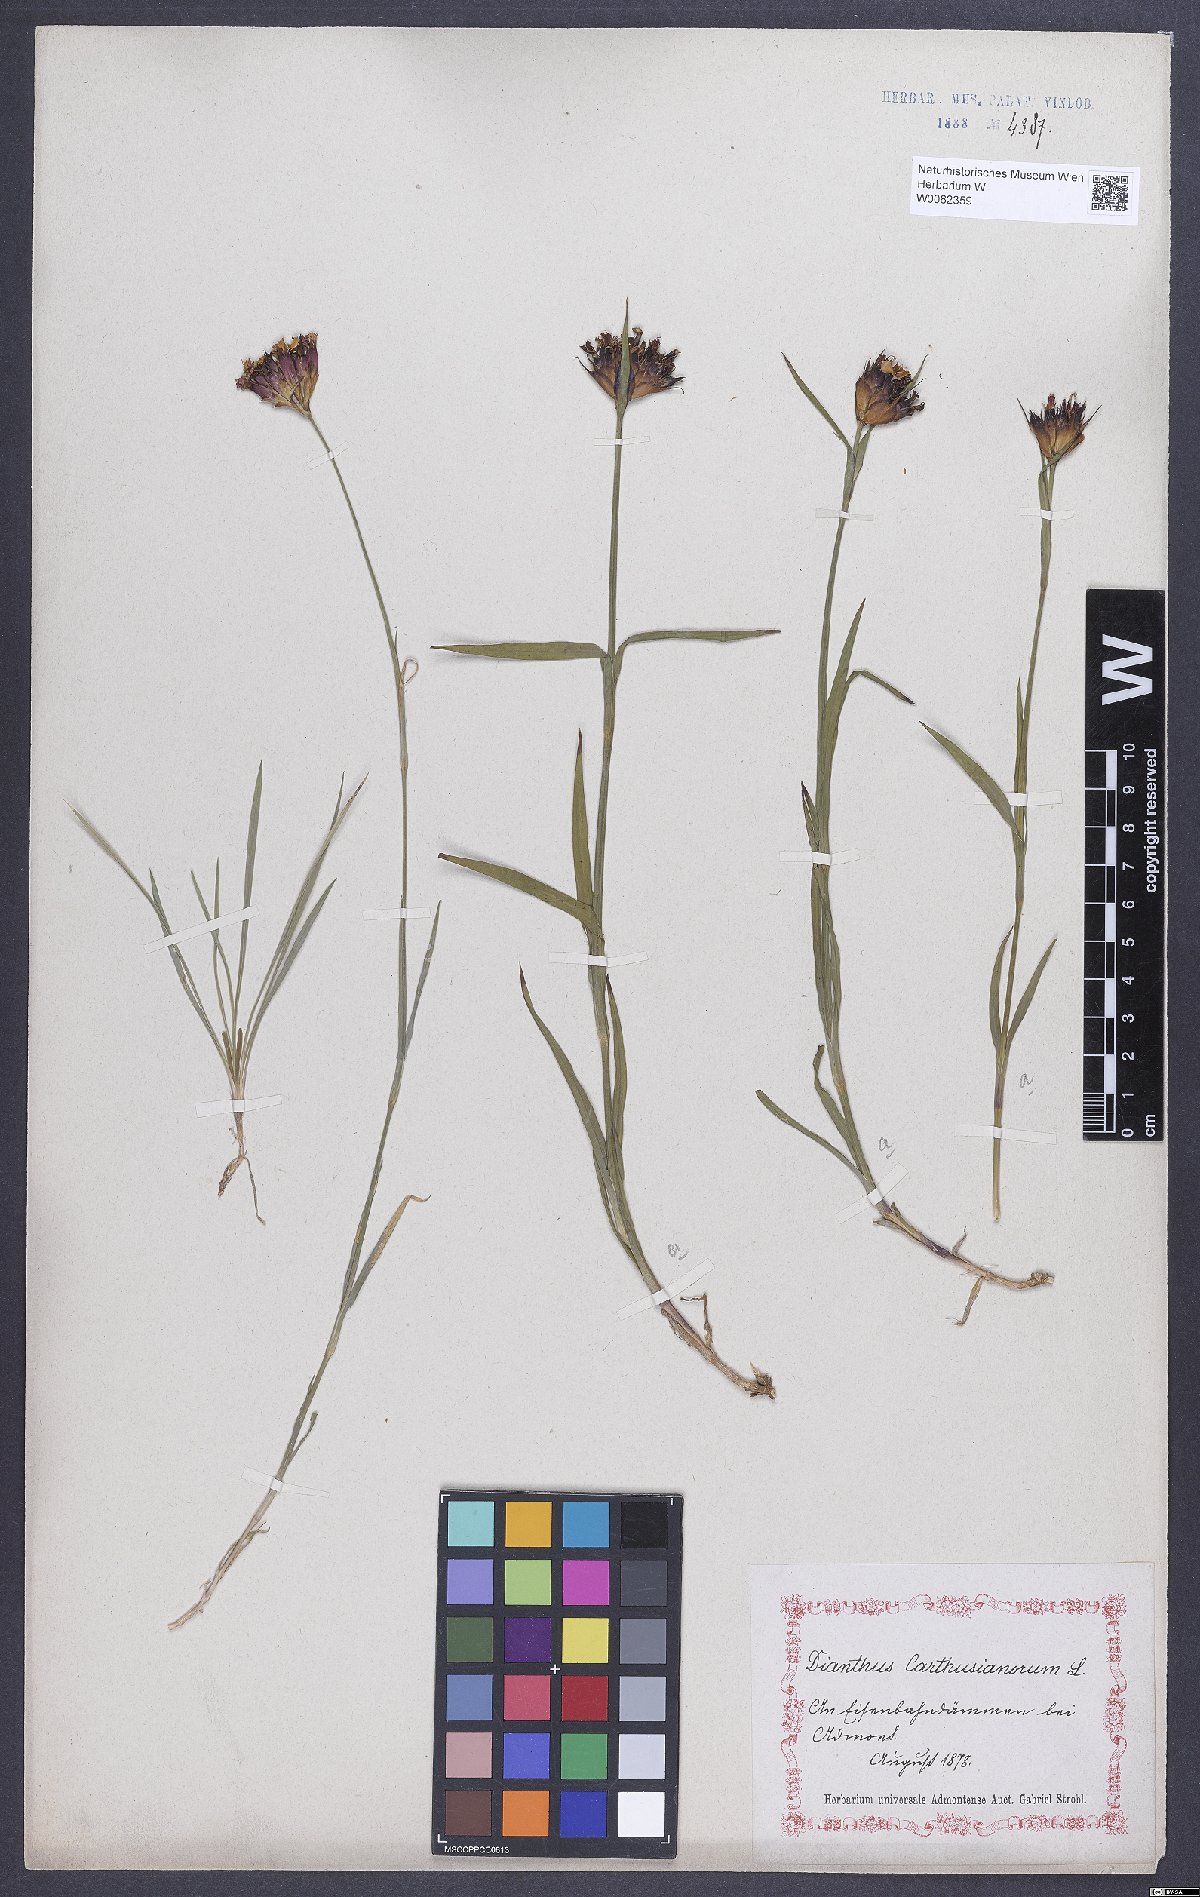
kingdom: Plantae
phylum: Tracheophyta
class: Magnoliopsida
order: Caryophyllales
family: Caryophyllaceae
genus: Dianthus
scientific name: Dianthus carthusianorum
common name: Carthusian pink
